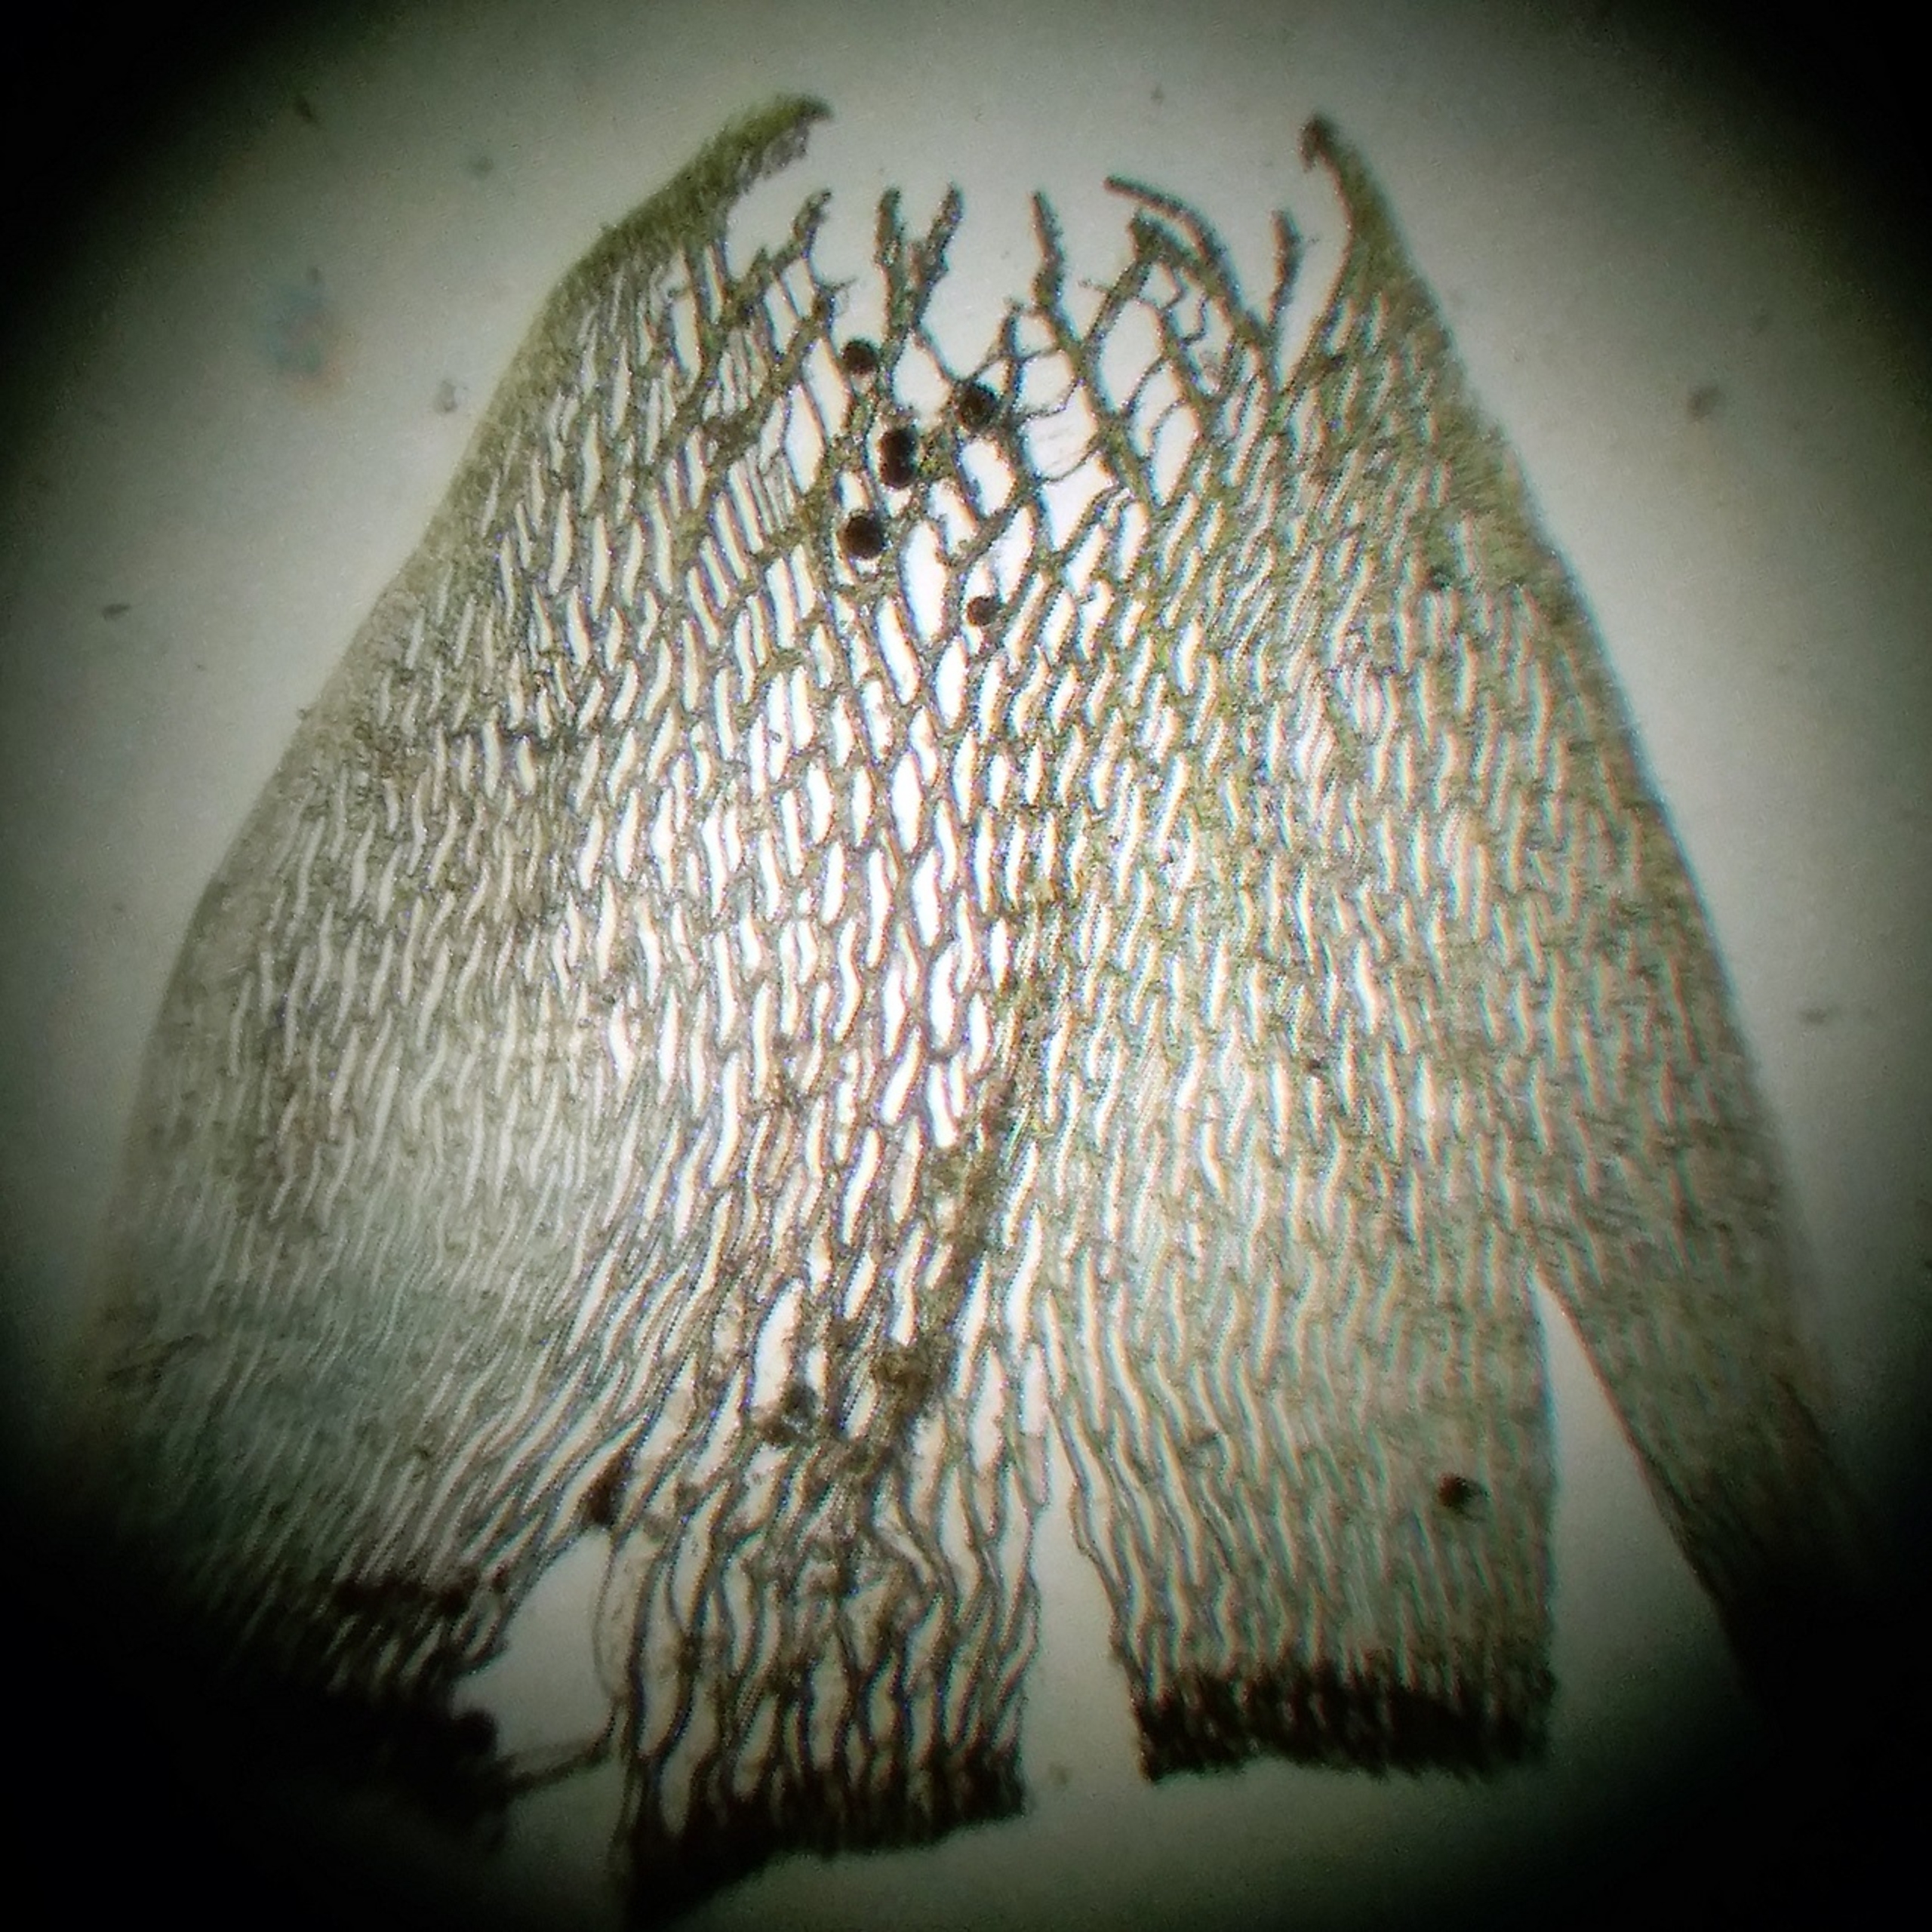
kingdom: Plantae
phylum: Bryophyta
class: Sphagnopsida
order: Sphagnales
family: Sphagnaceae
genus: Sphagnum
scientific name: Sphagnum riparium
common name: Kløftet tørvemos
